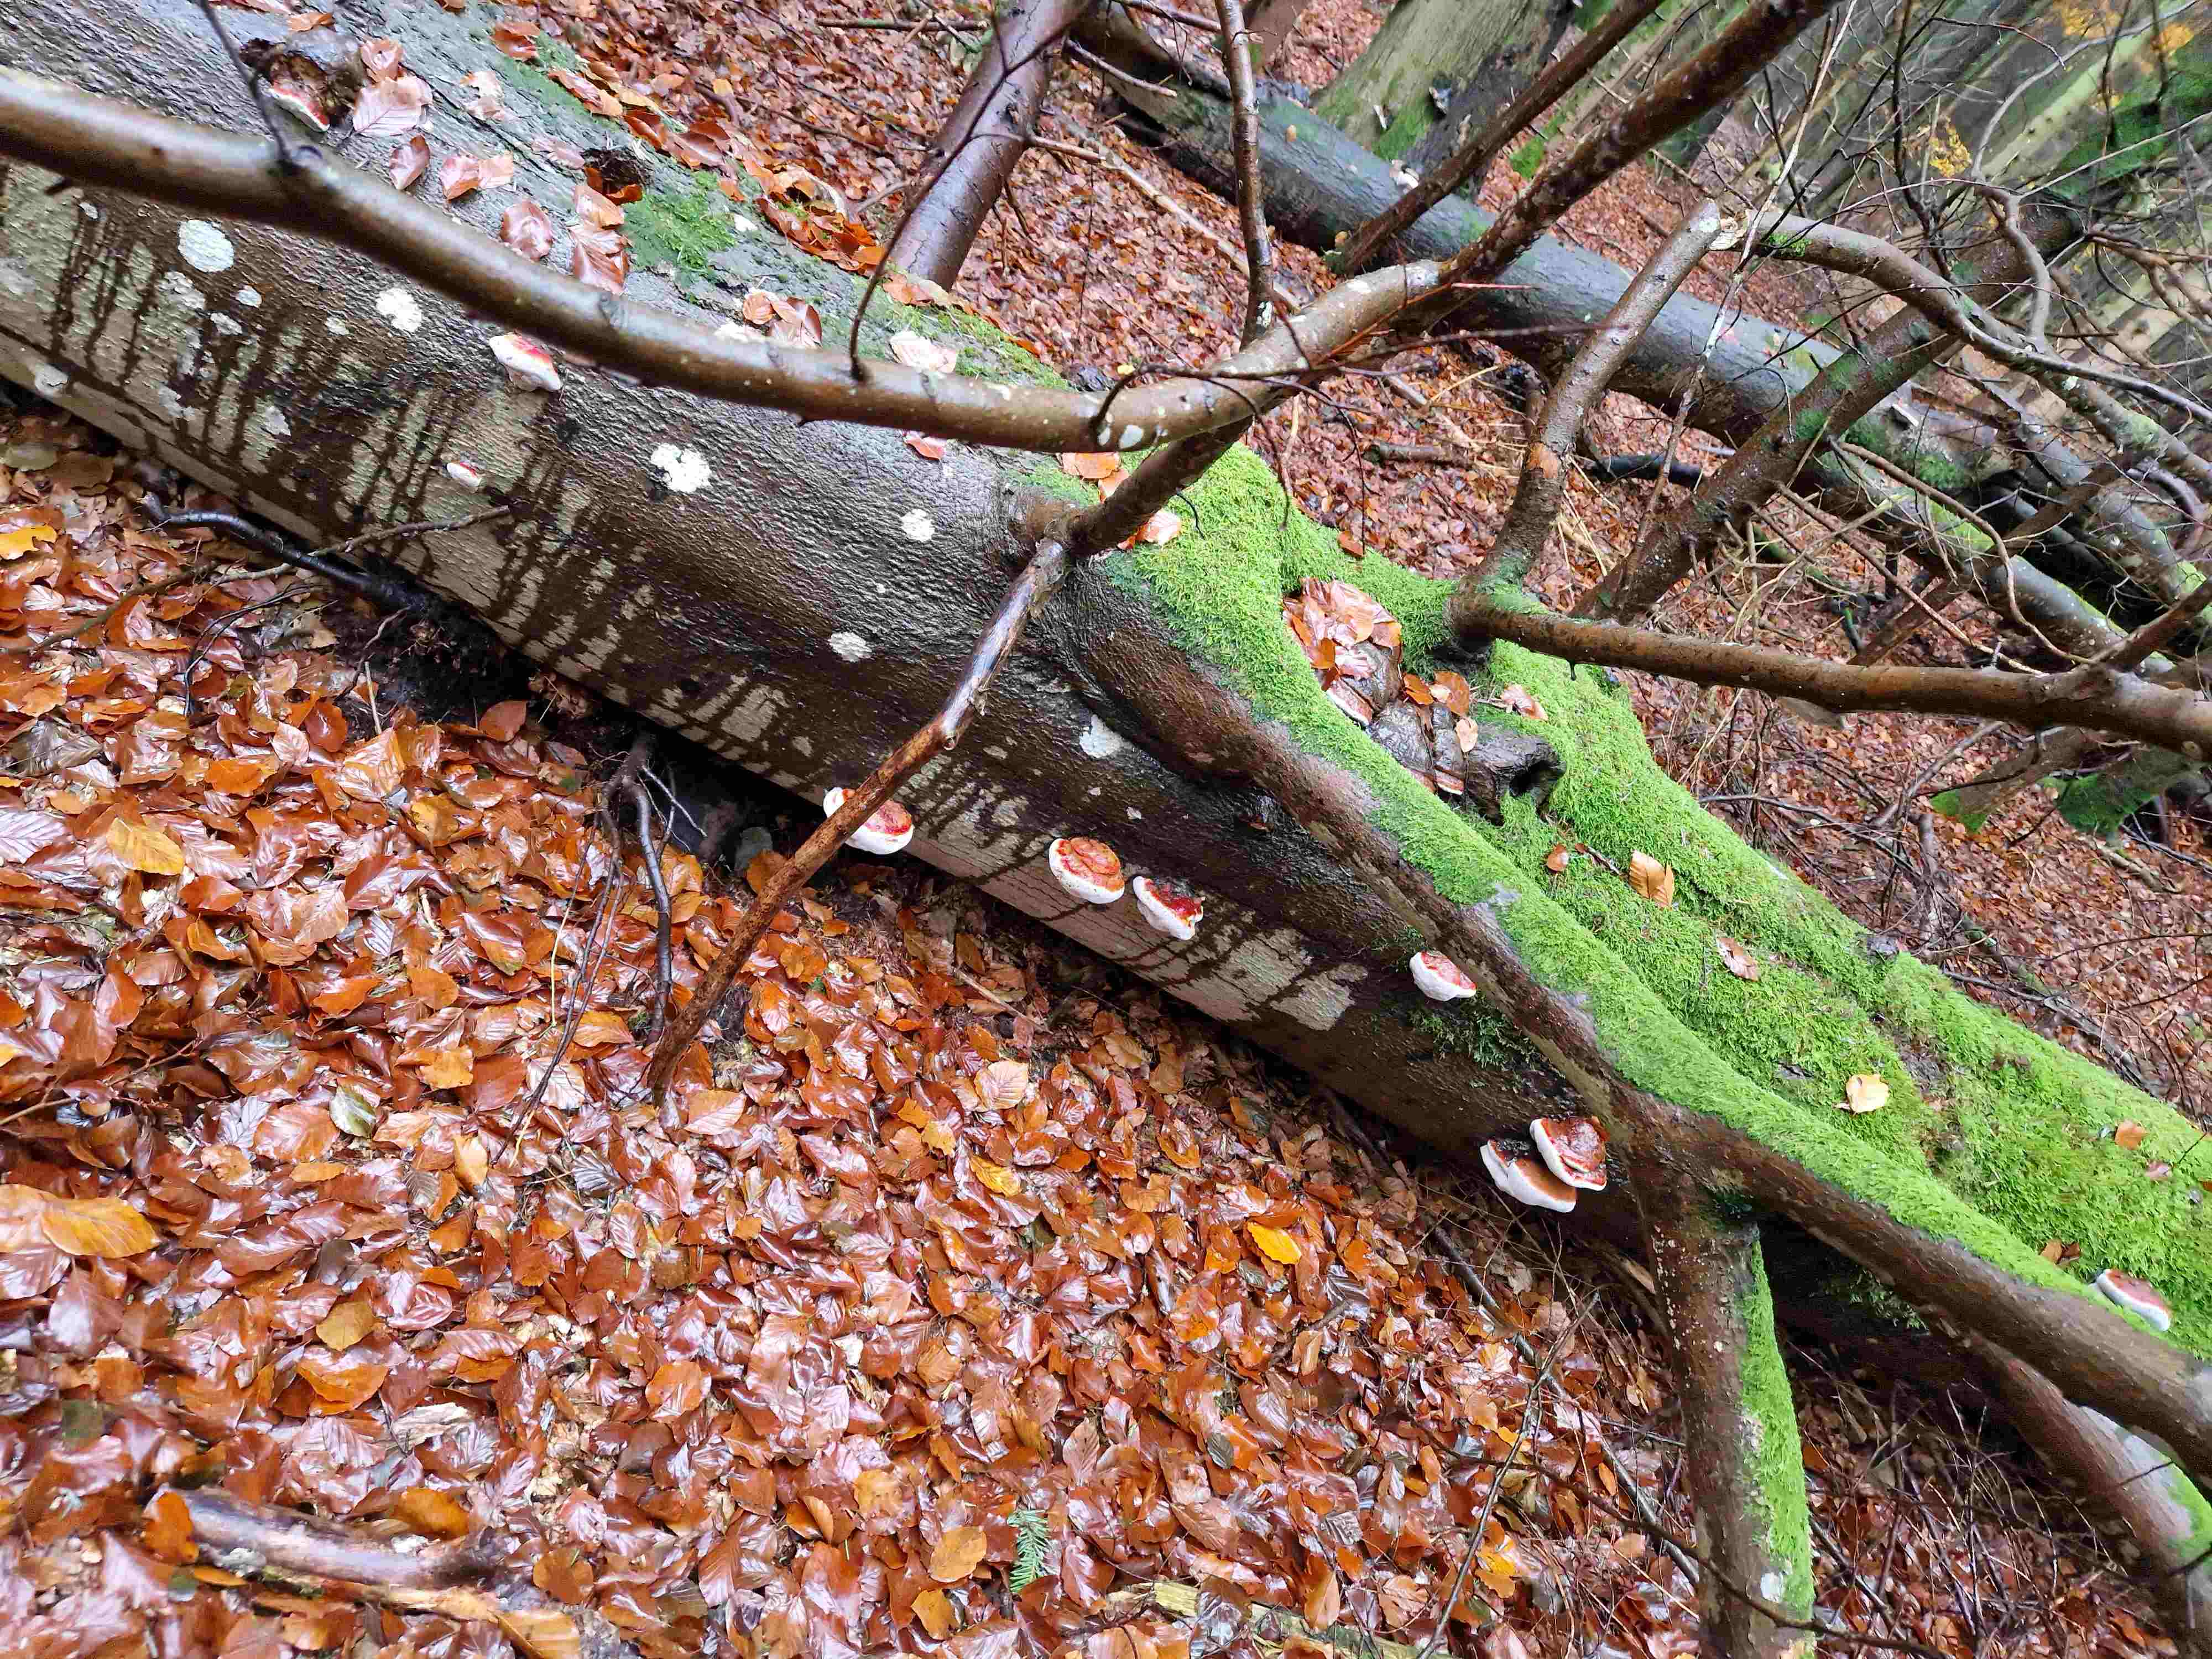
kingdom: Fungi
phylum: Basidiomycota
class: Agaricomycetes
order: Polyporales
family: Fomitopsidaceae
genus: Fomitopsis
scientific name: Fomitopsis pinicola
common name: randbæltet hovporesvamp
